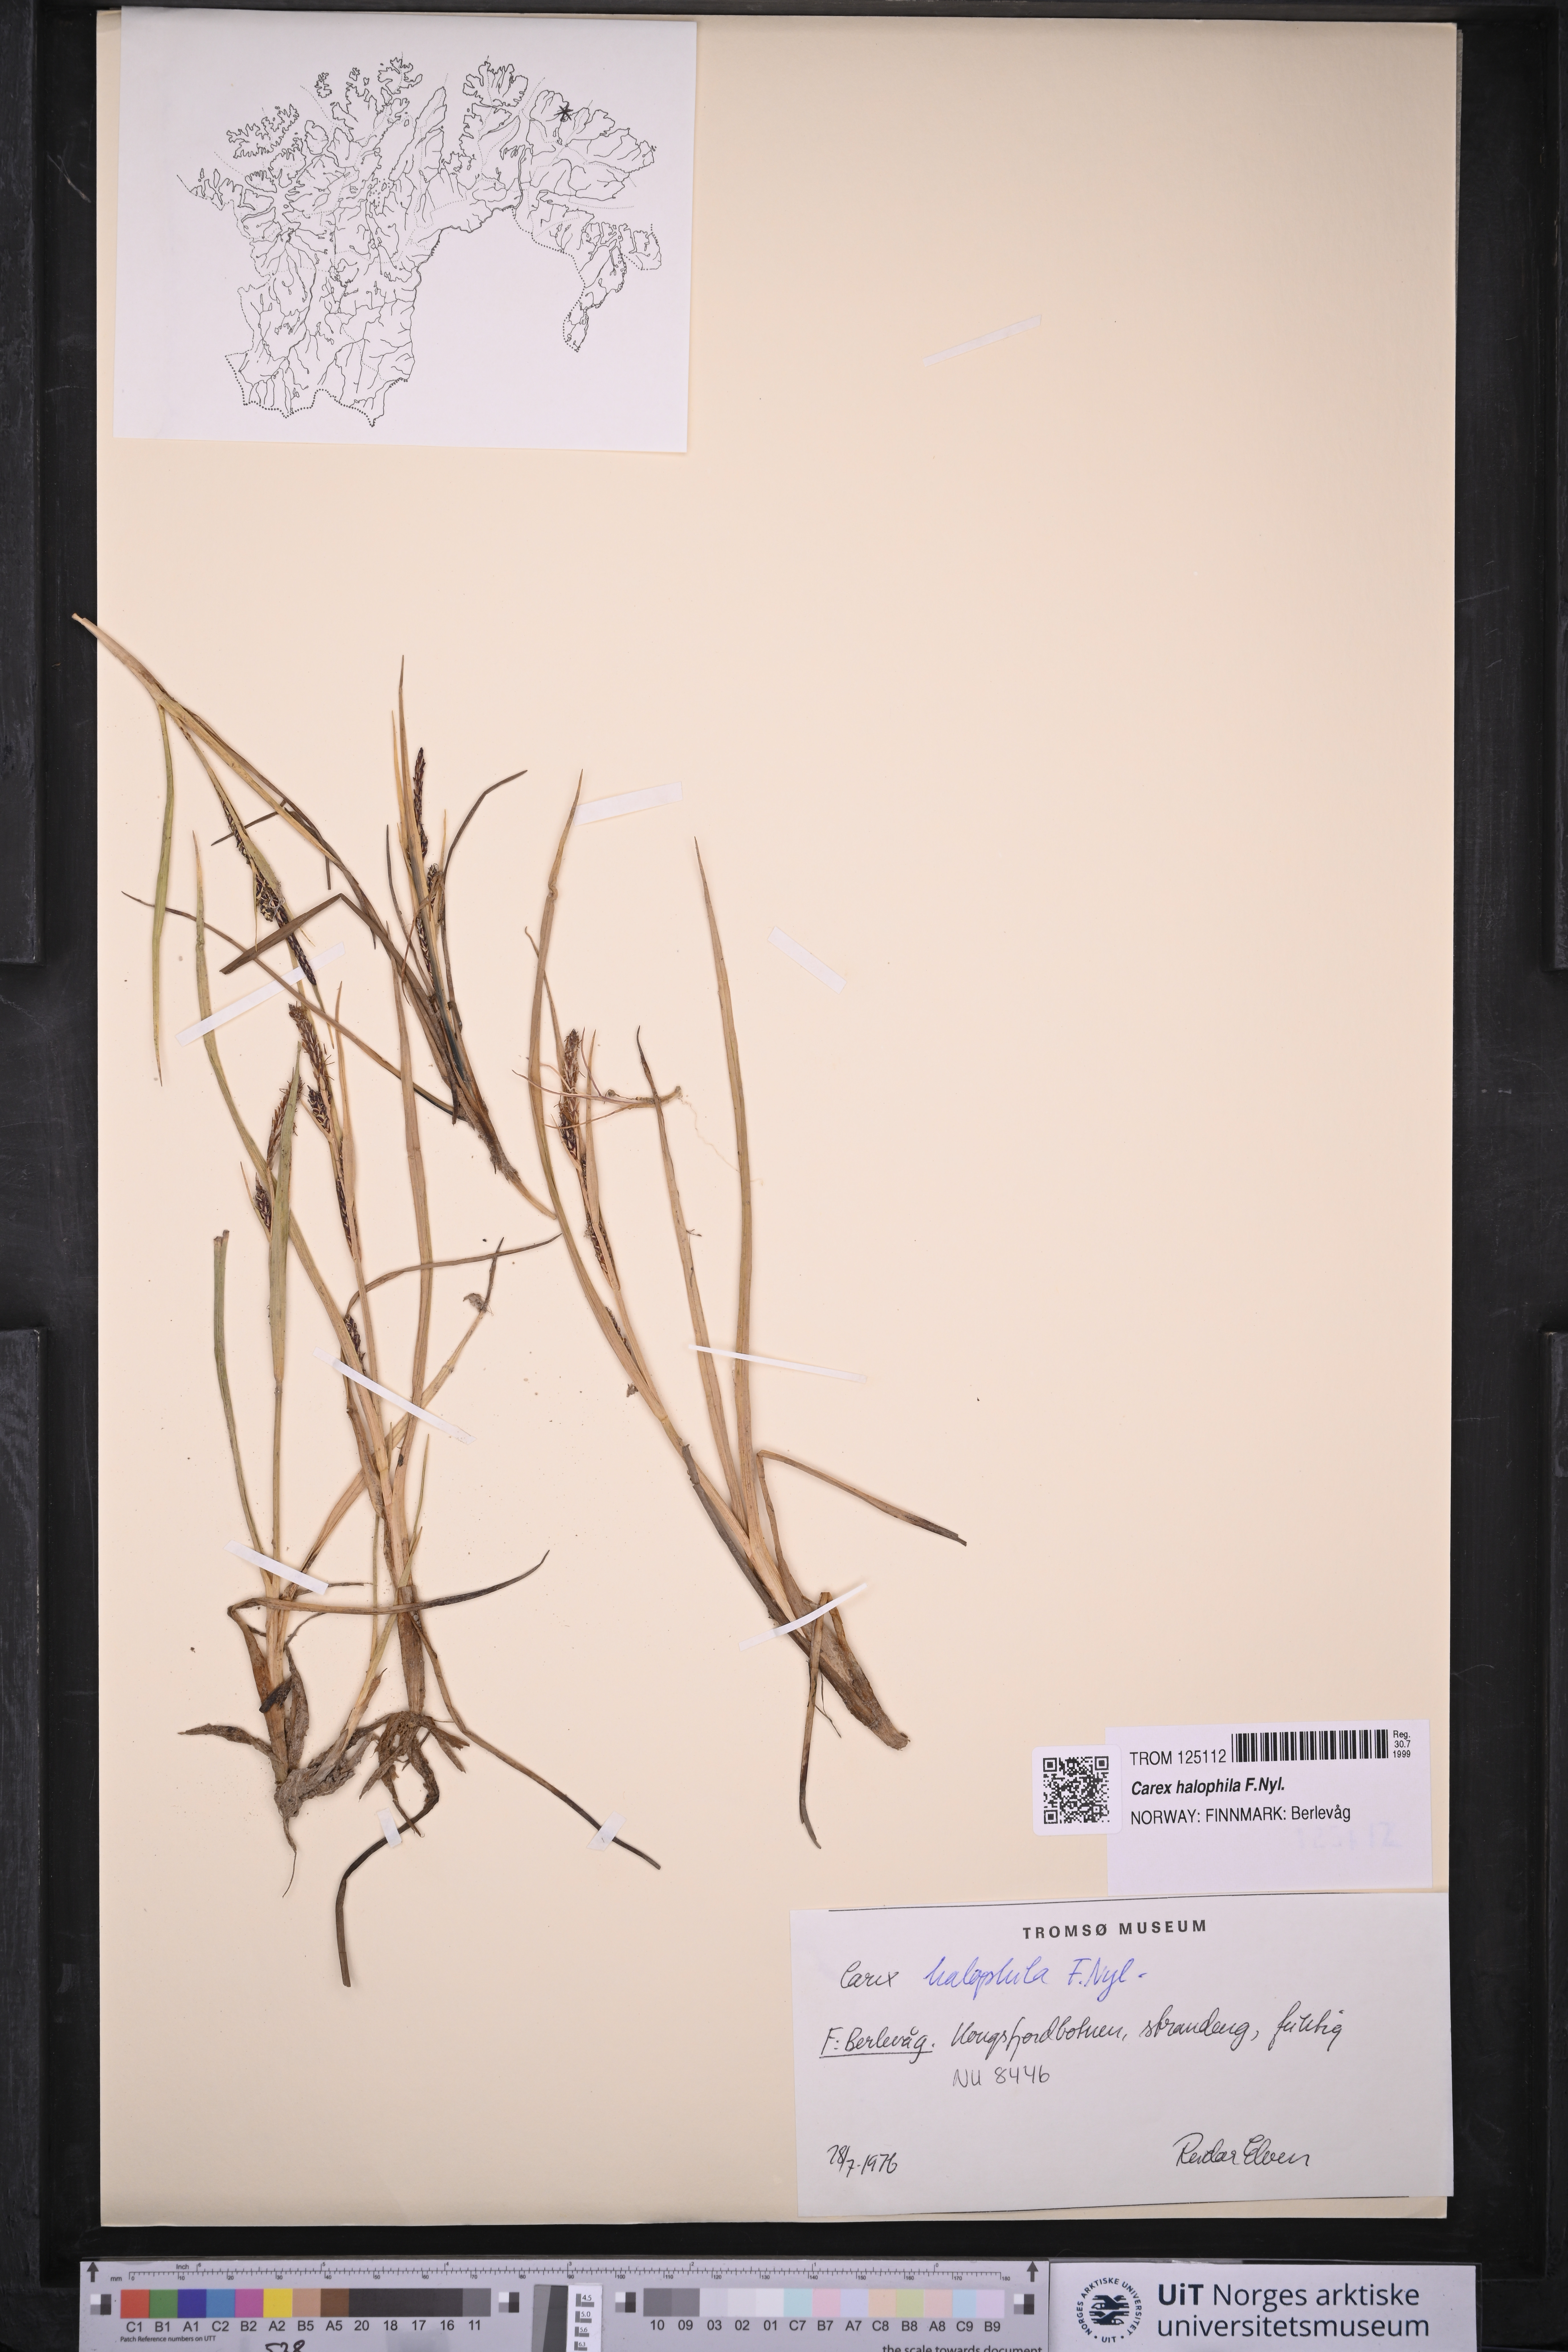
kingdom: Plantae
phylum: Tracheophyta
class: Liliopsida
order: Poales
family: Cyperaceae
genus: Carex
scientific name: Carex halophila
